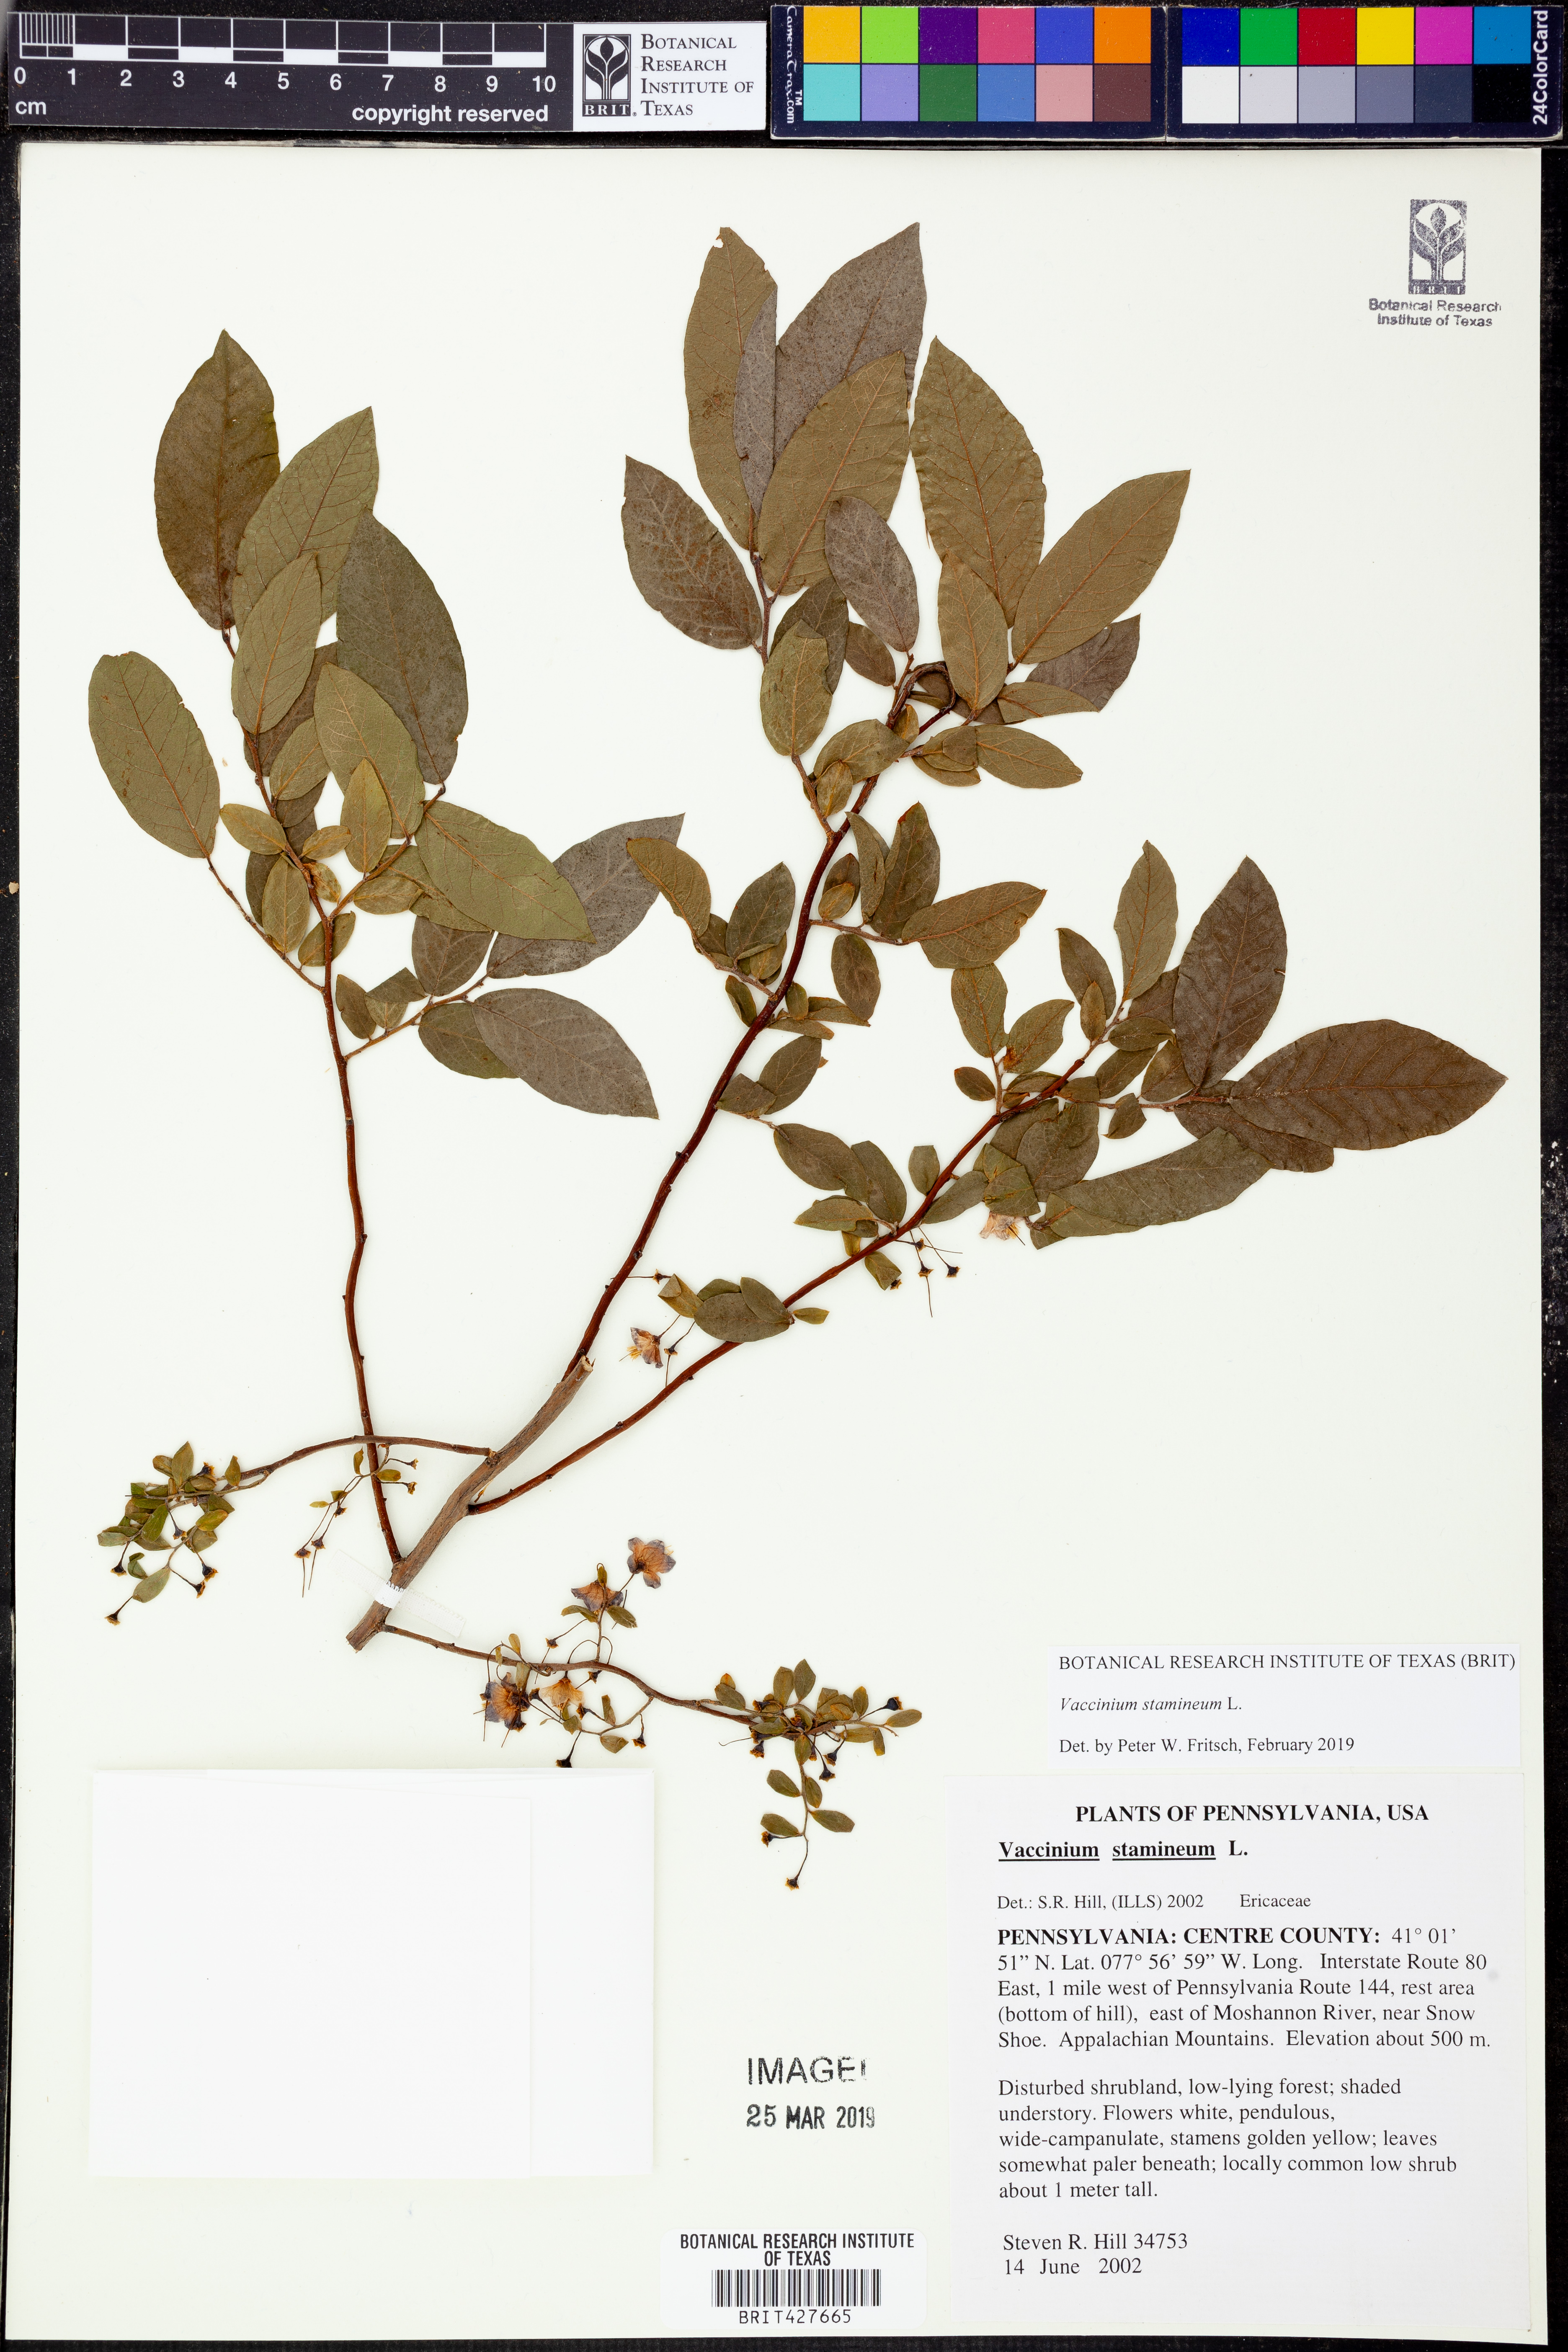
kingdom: Plantae
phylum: Tracheophyta
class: Magnoliopsida
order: Ericales
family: Ericaceae
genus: Vaccinium
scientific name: Vaccinium stamineum
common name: Deerberry
